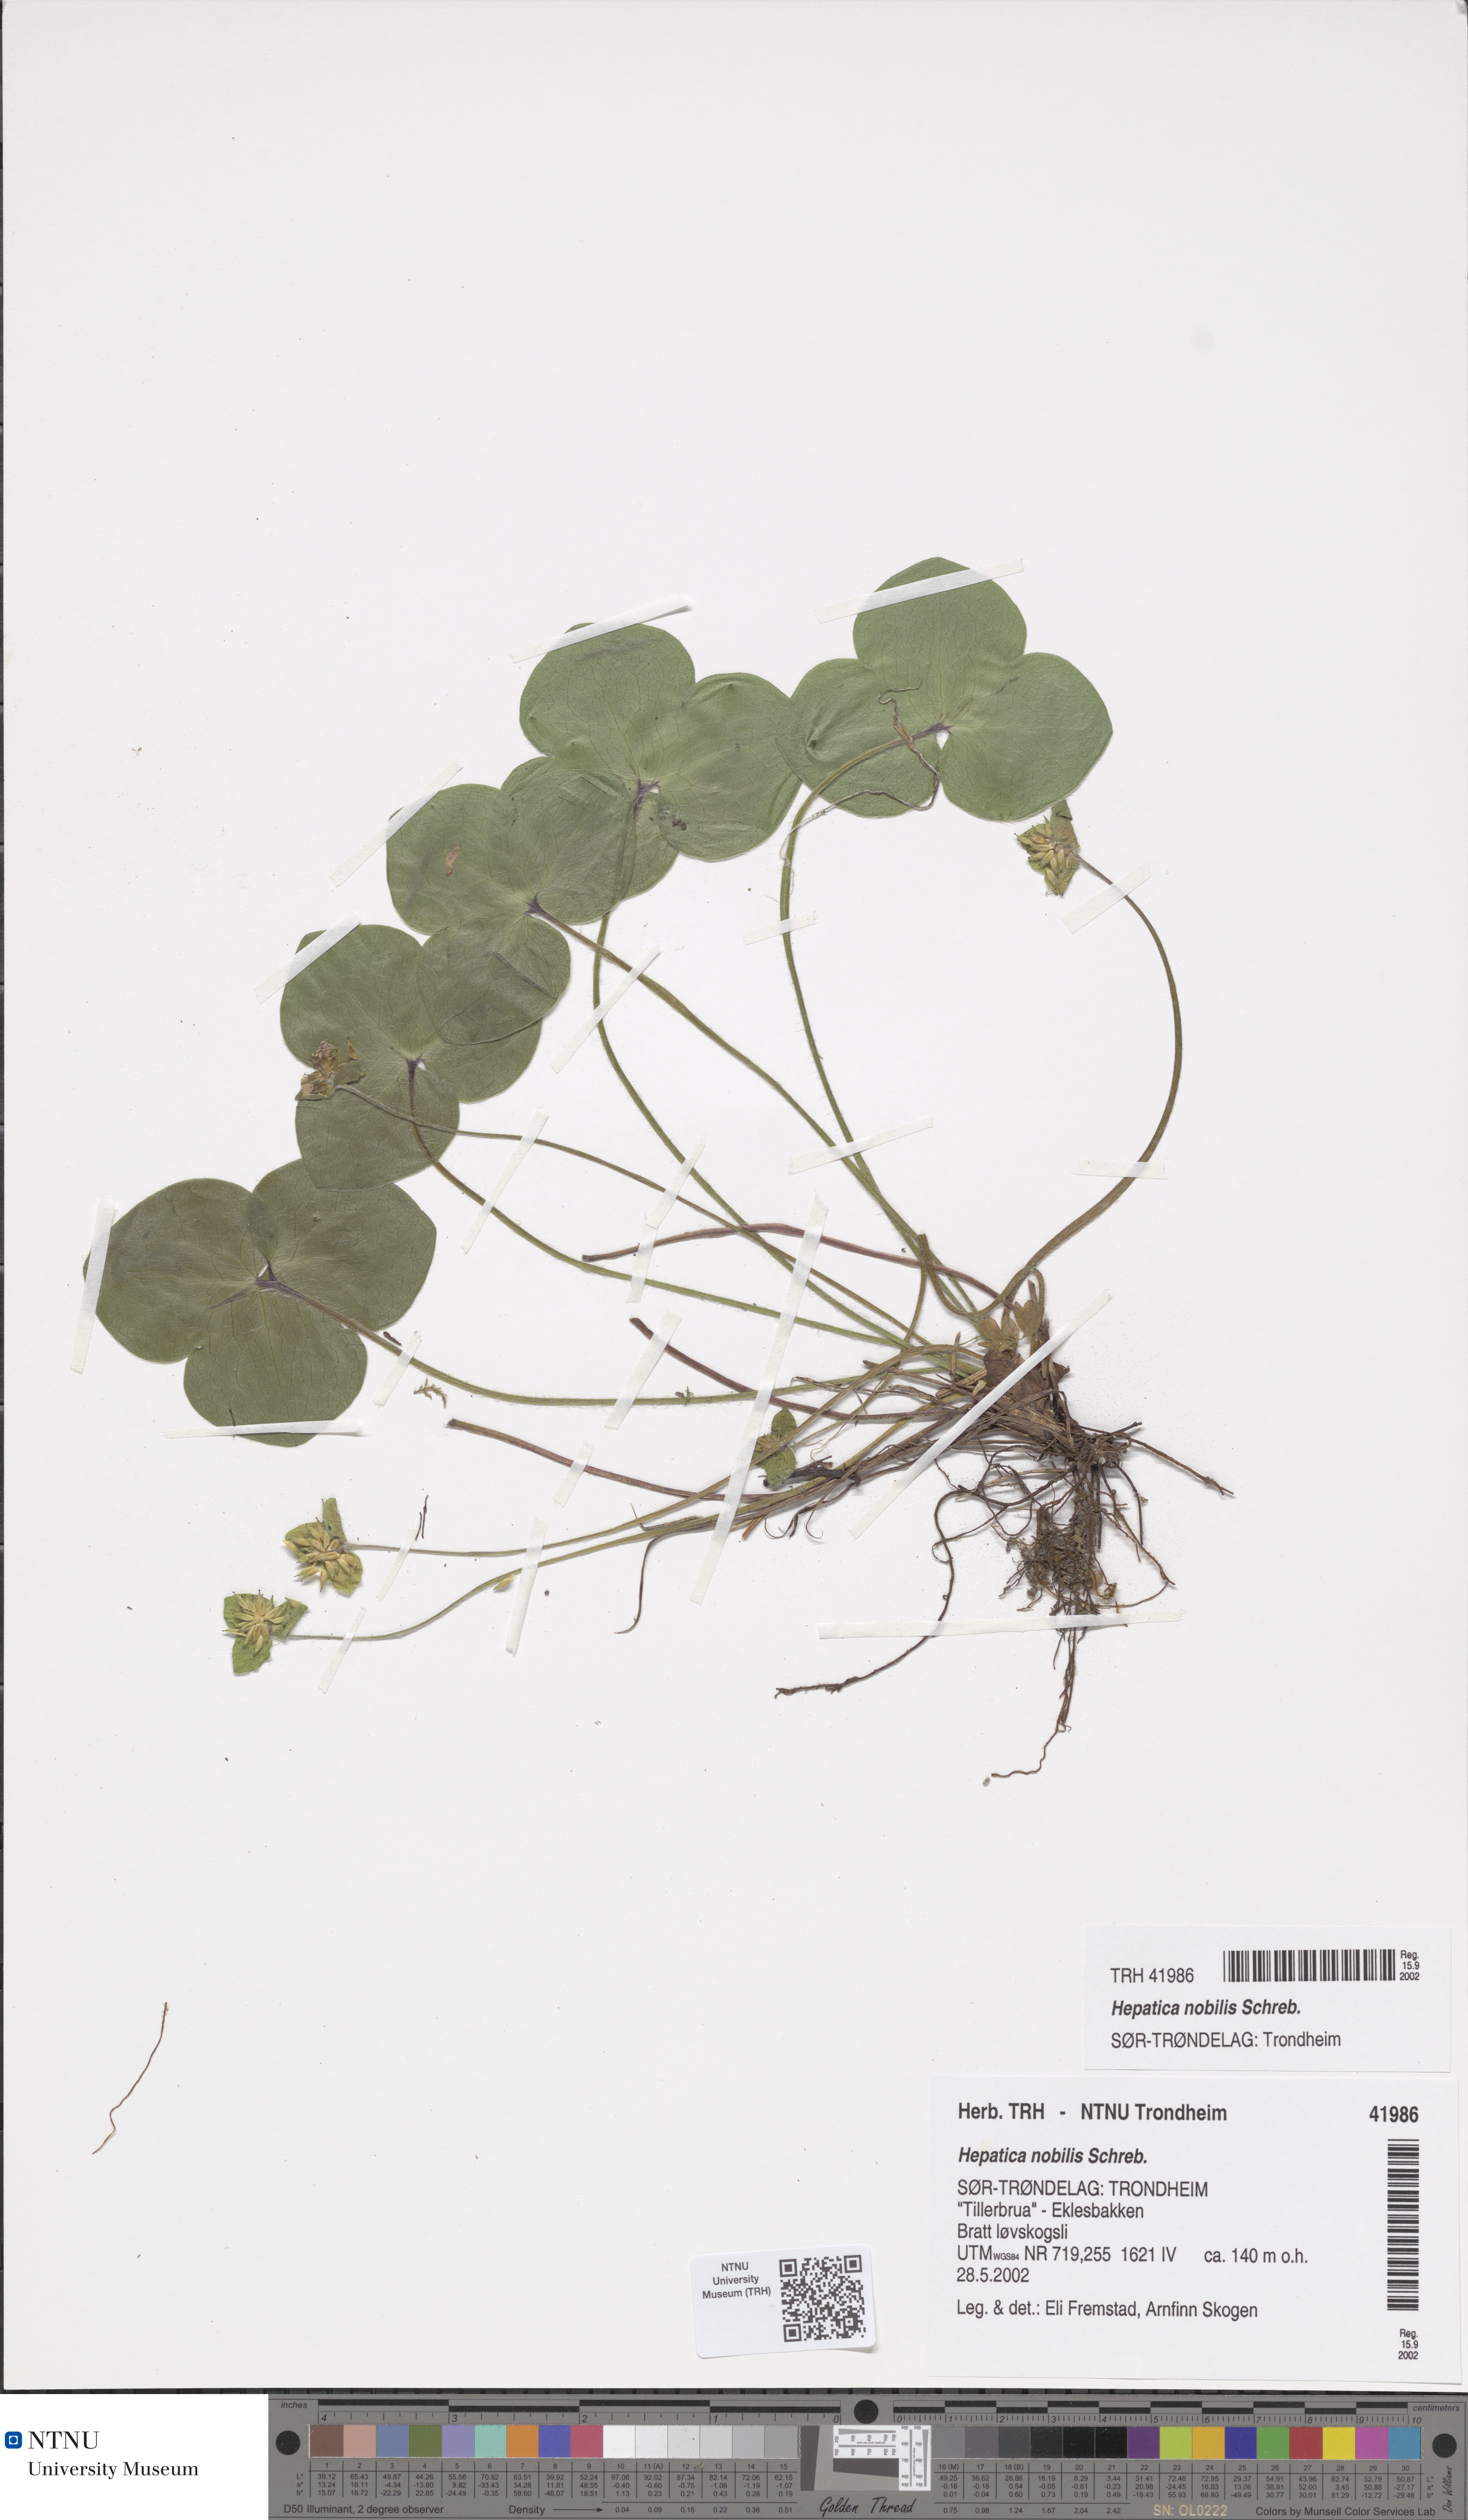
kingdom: Plantae
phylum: Tracheophyta
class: Magnoliopsida
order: Ranunculales
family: Ranunculaceae
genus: Hepatica
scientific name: Hepatica nobilis
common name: Liverleaf
